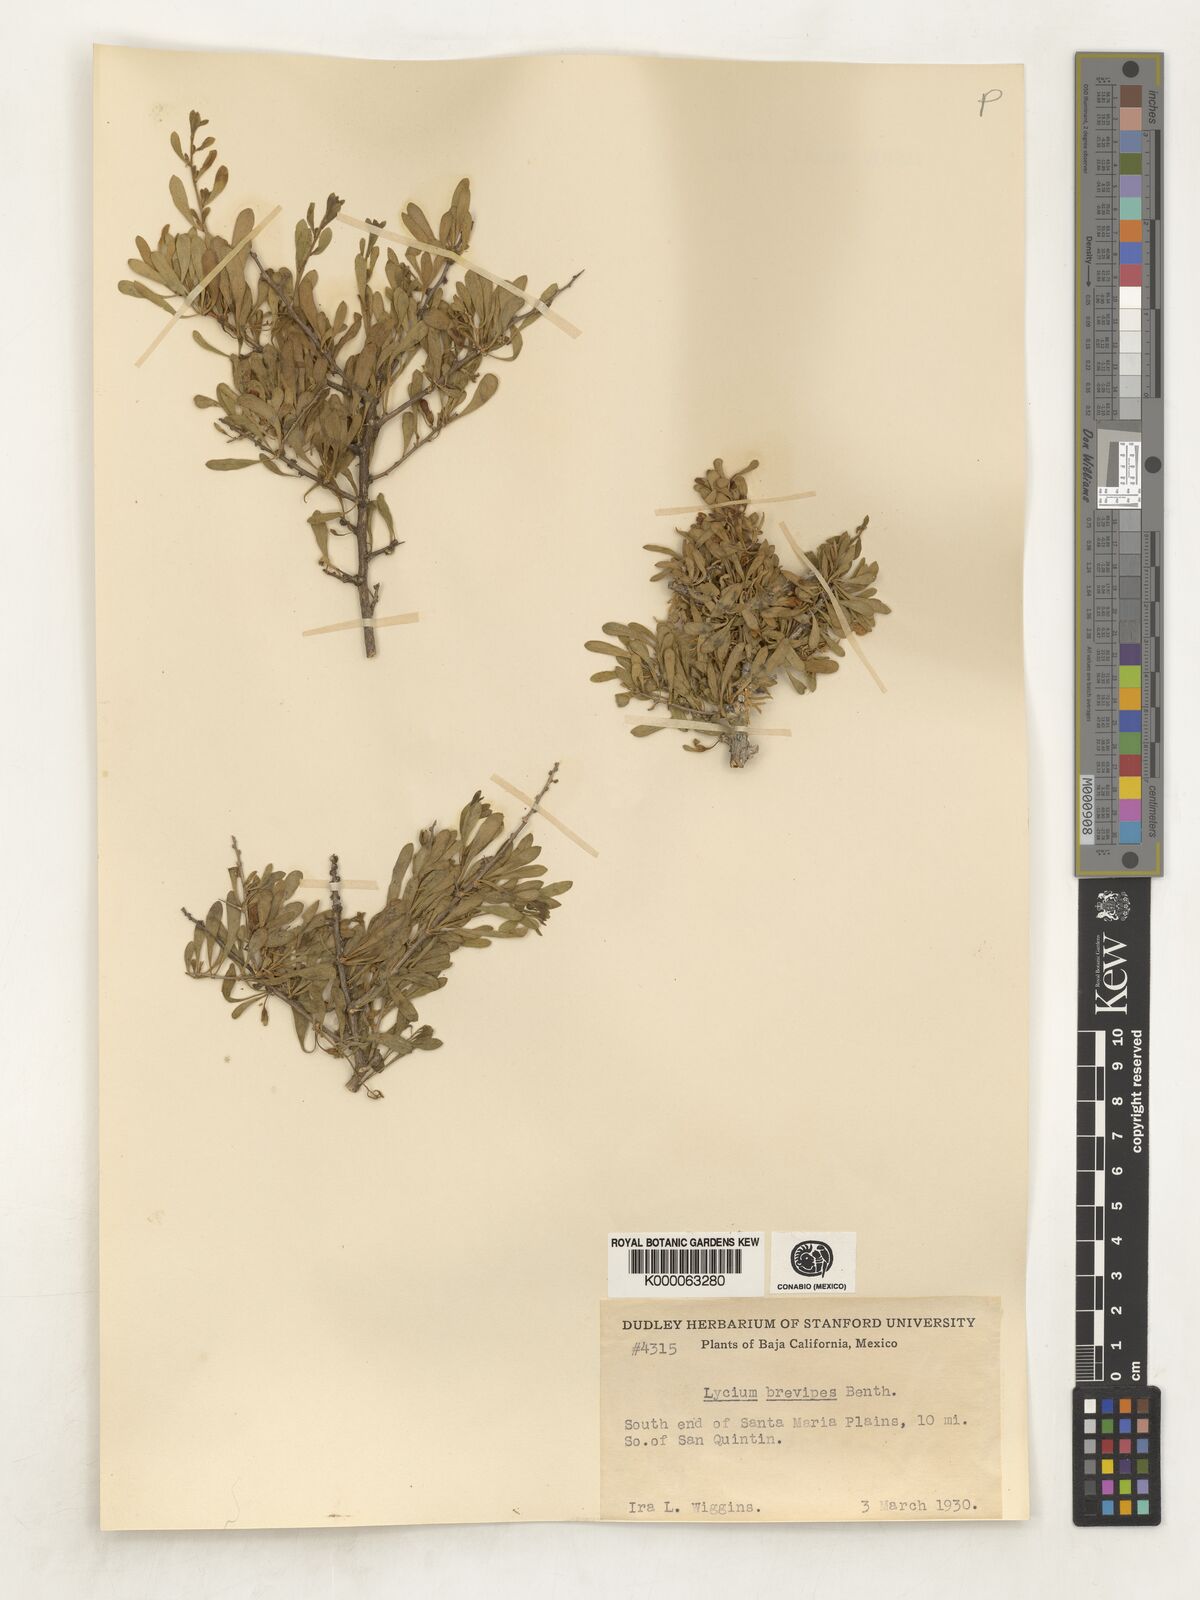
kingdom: Plantae
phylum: Tracheophyta
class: Magnoliopsida
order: Solanales
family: Solanaceae
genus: Lycium
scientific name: Lycium brevipes
